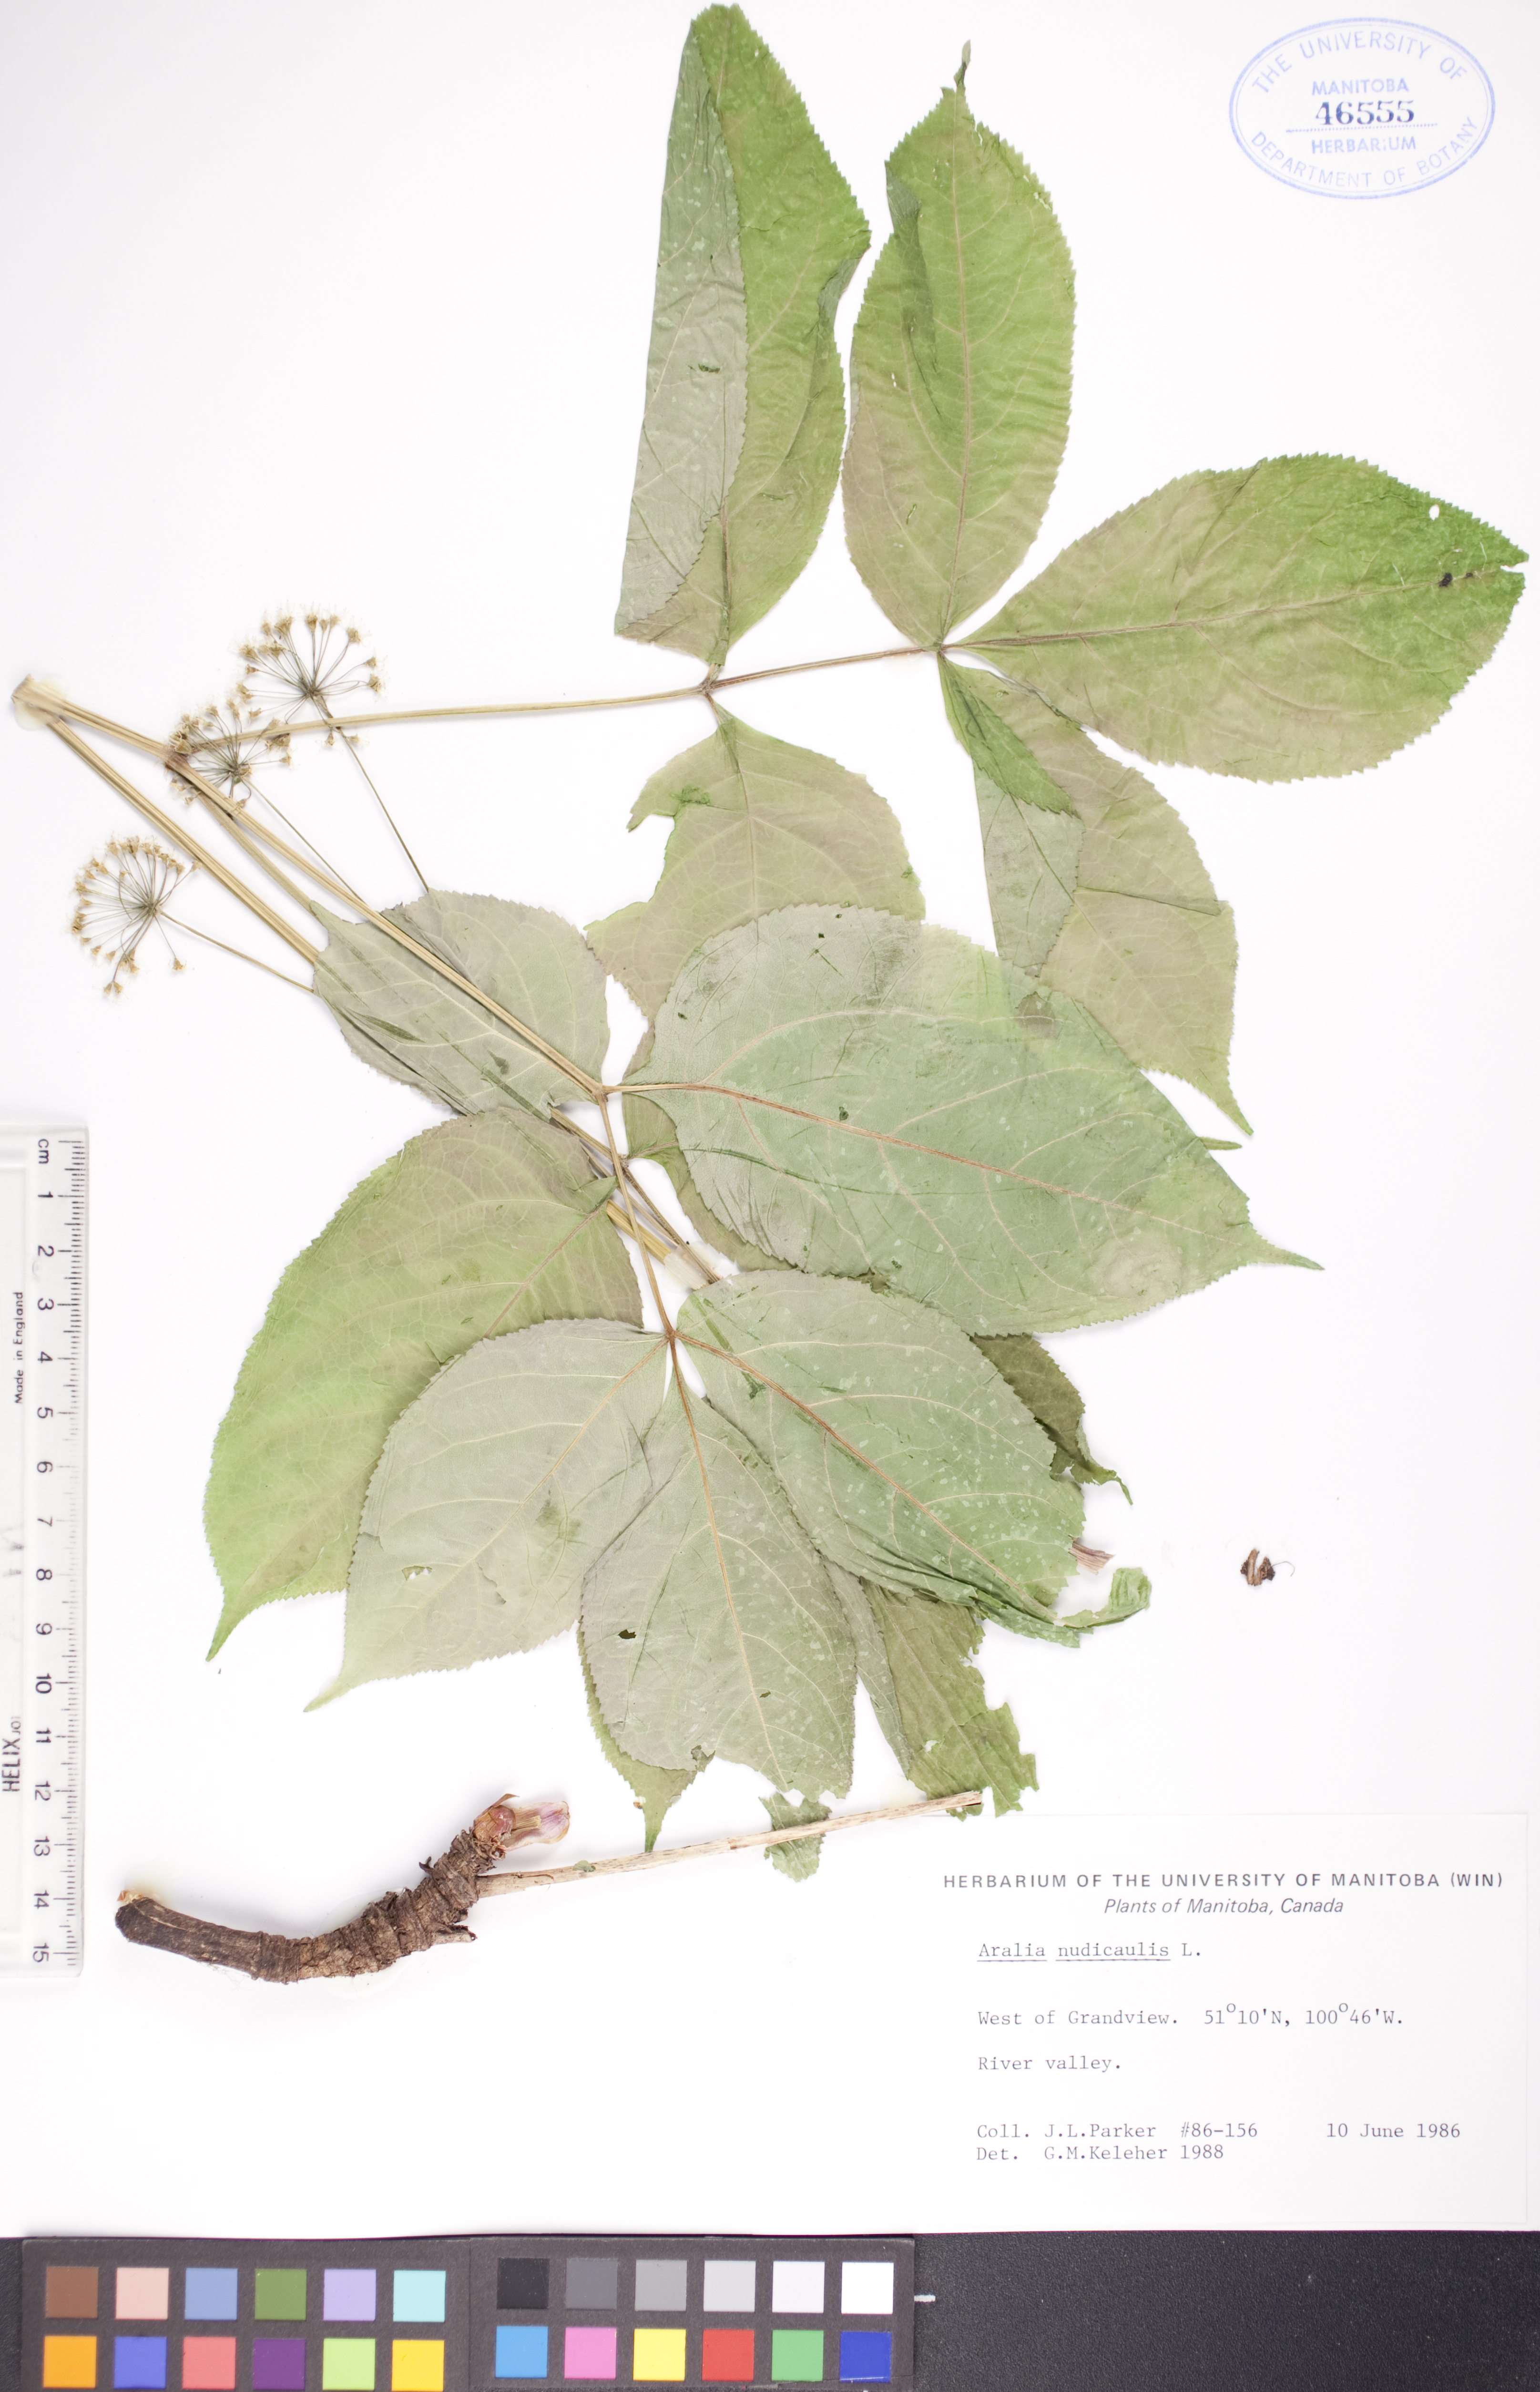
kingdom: Plantae
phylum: Tracheophyta
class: Magnoliopsida
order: Apiales
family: Araliaceae
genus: Aralia
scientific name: Aralia nudicaulis
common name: Wild sarsaparilla
